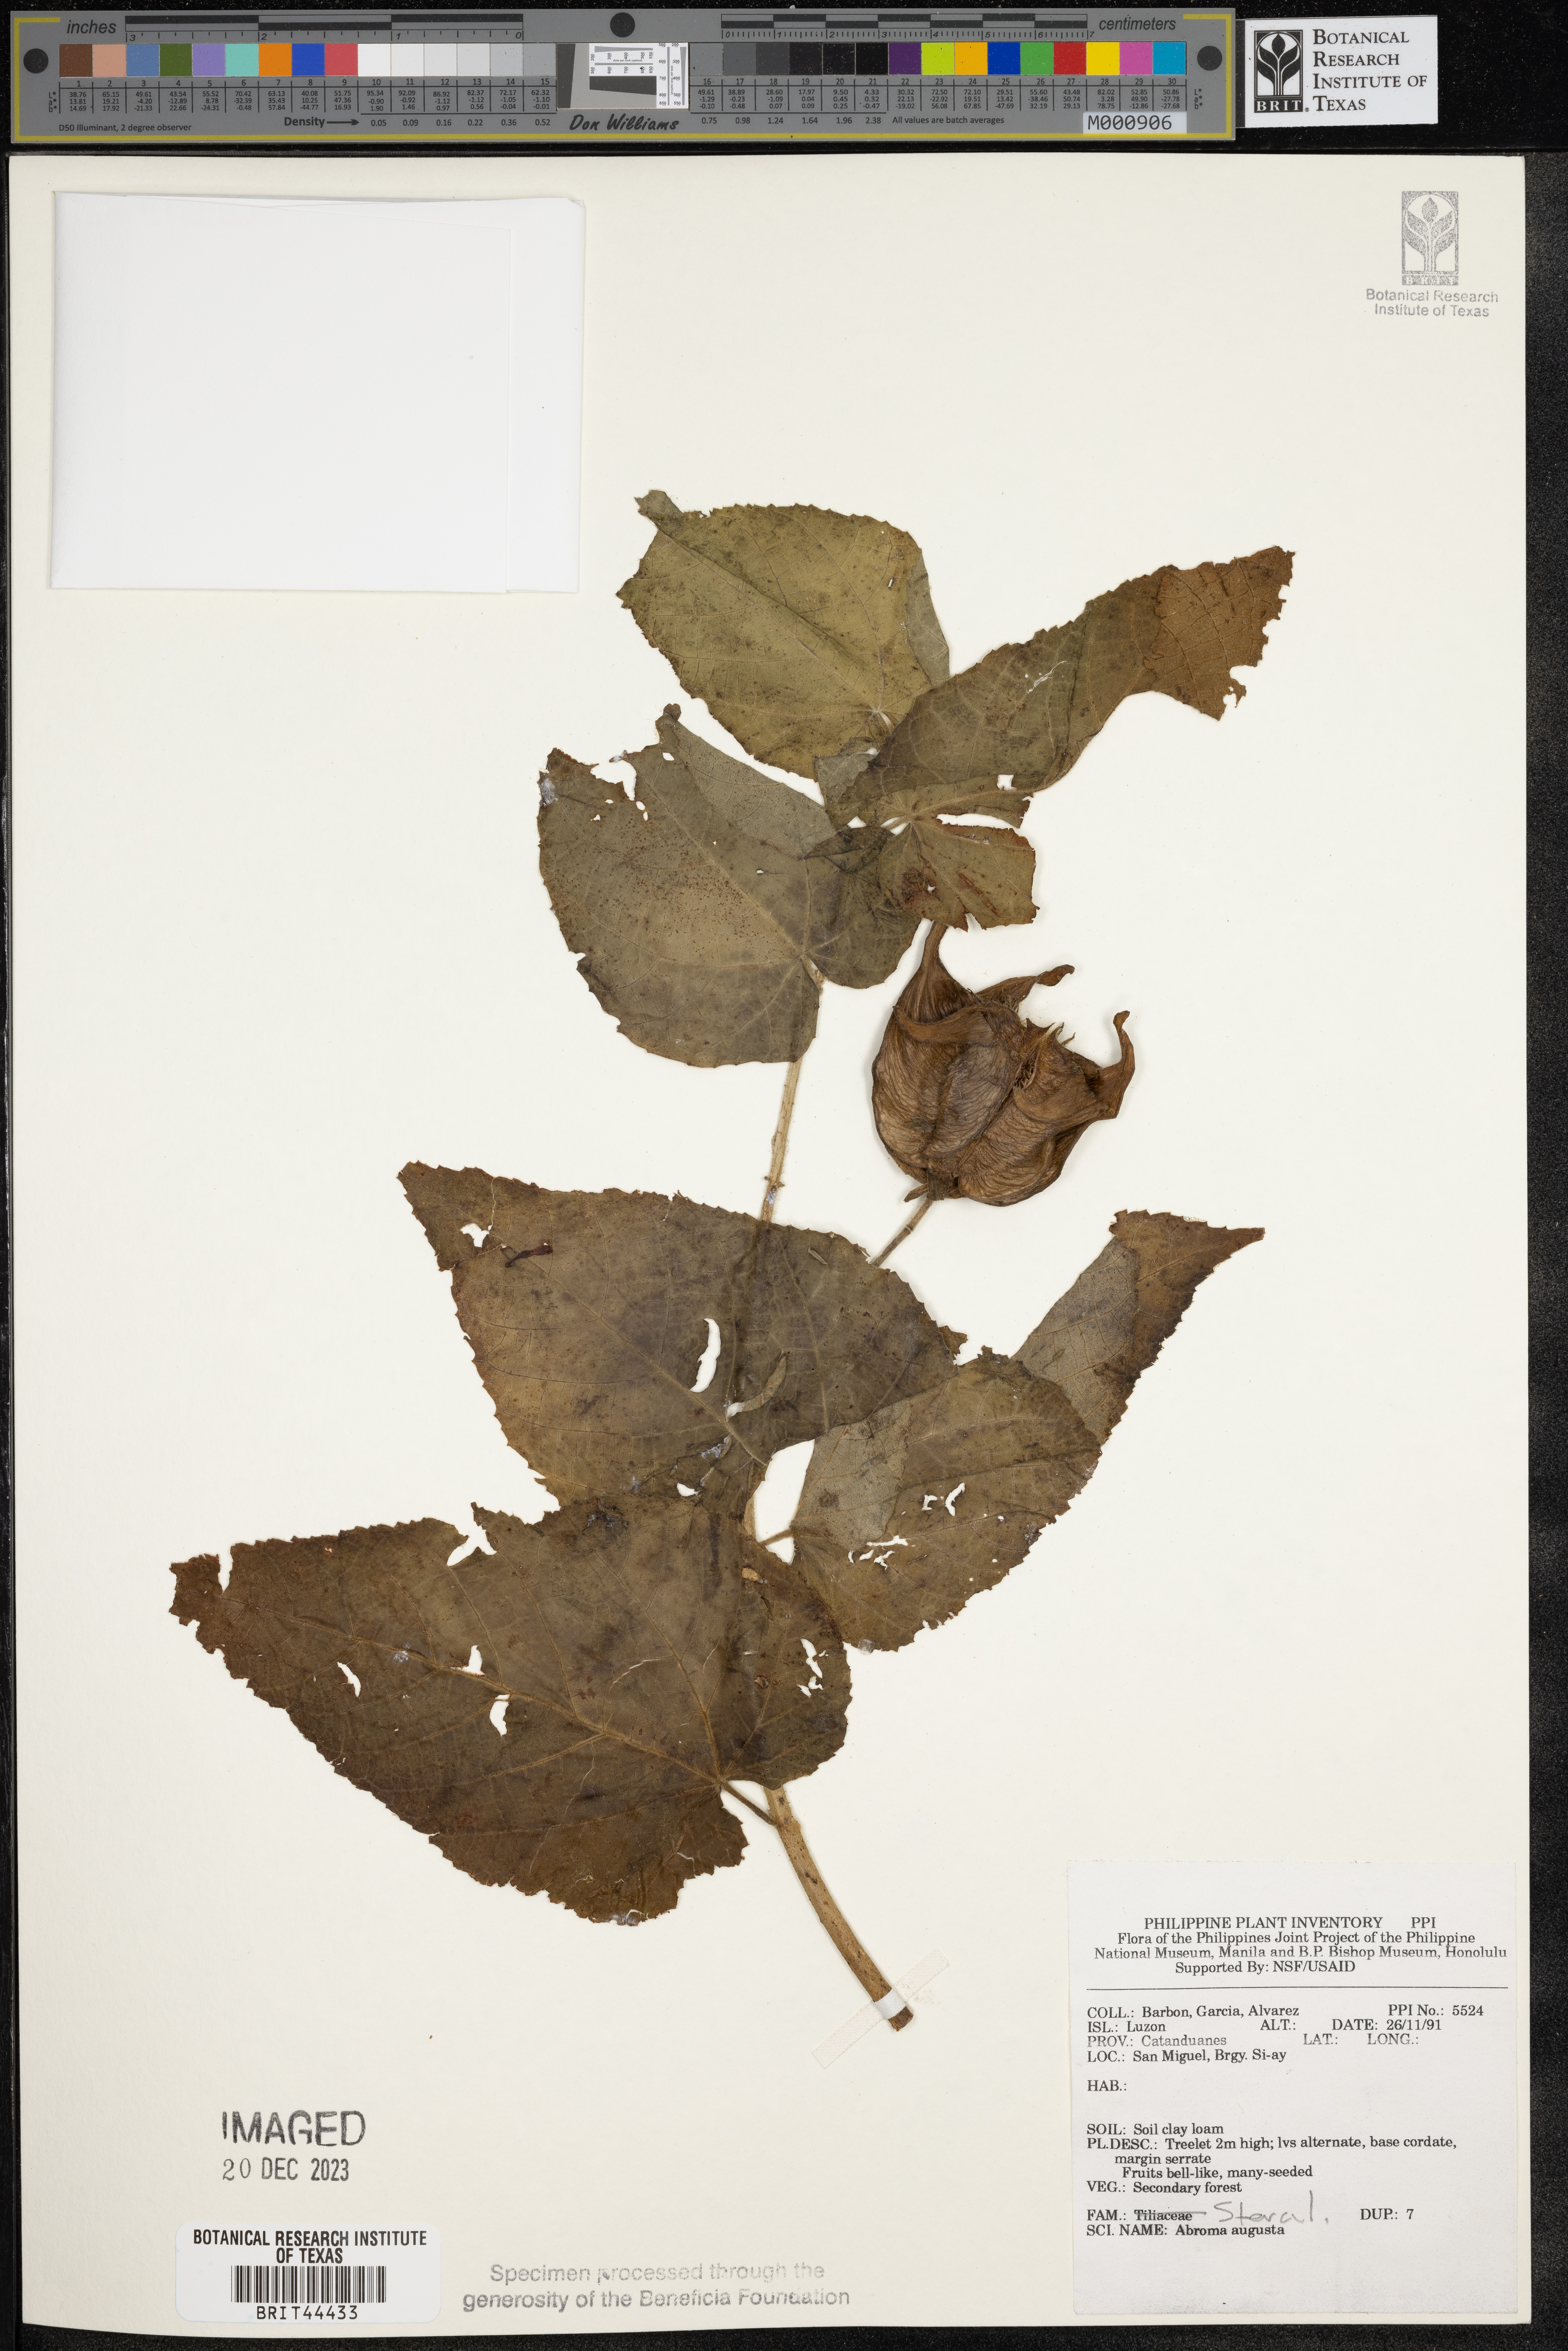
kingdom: Plantae
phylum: Tracheophyta
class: Magnoliopsida
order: Malvales
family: Malvaceae
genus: Abroma
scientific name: Abroma augustum
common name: Devil's-cotton
